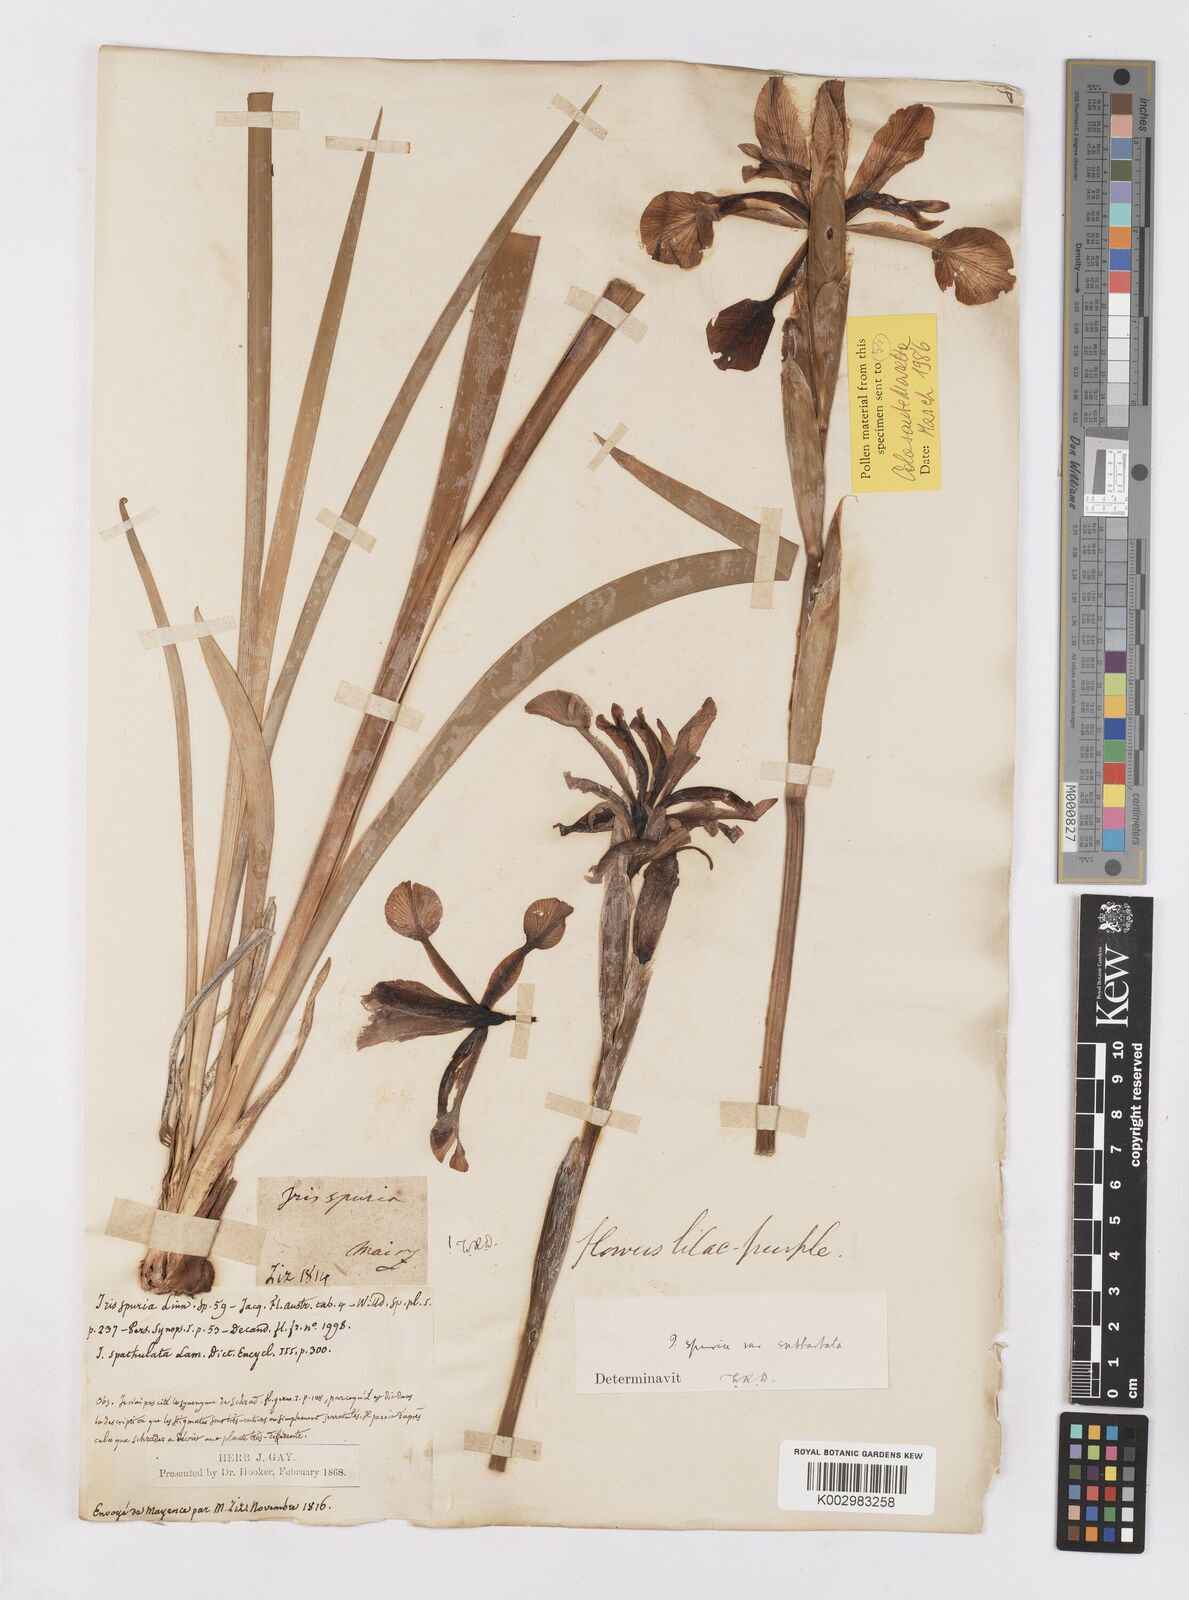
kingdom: Plantae
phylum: Tracheophyta
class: Liliopsida
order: Asparagales
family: Iridaceae
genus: Iris
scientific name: Iris spuria
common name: Blue iris
